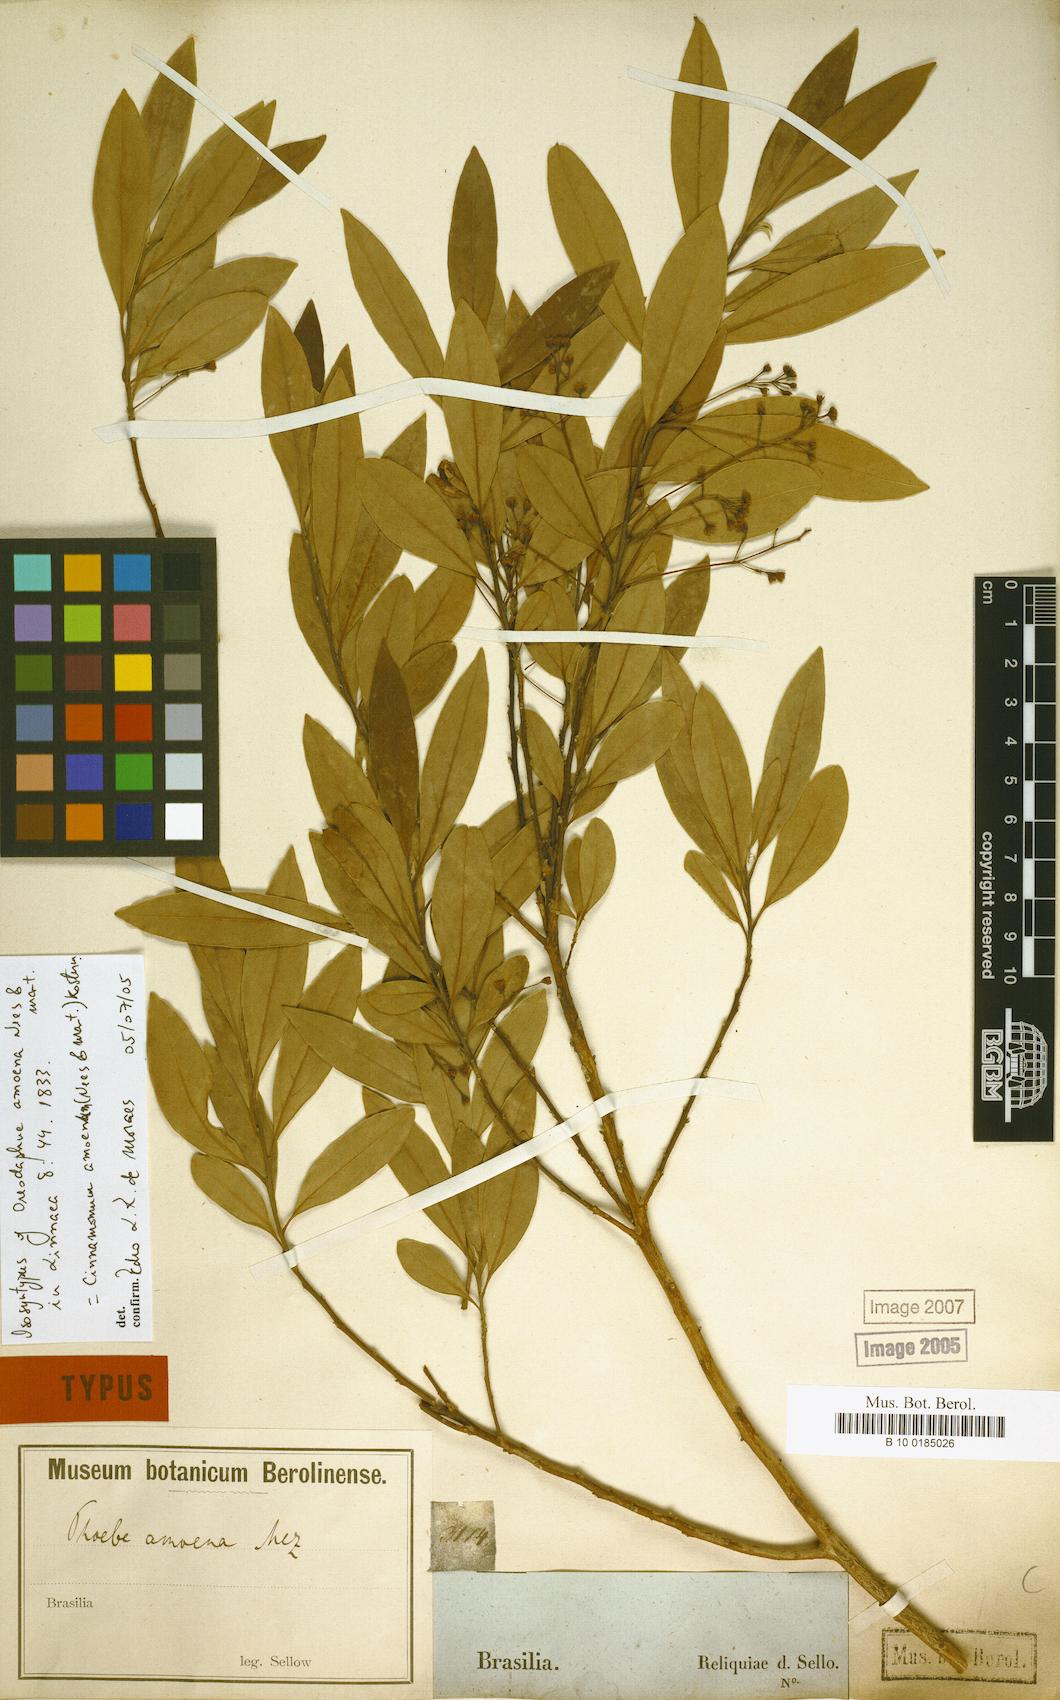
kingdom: Plantae
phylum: Tracheophyta
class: Magnoliopsida
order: Laurales
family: Lauraceae
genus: Aiouea
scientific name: Aiouea amoena
